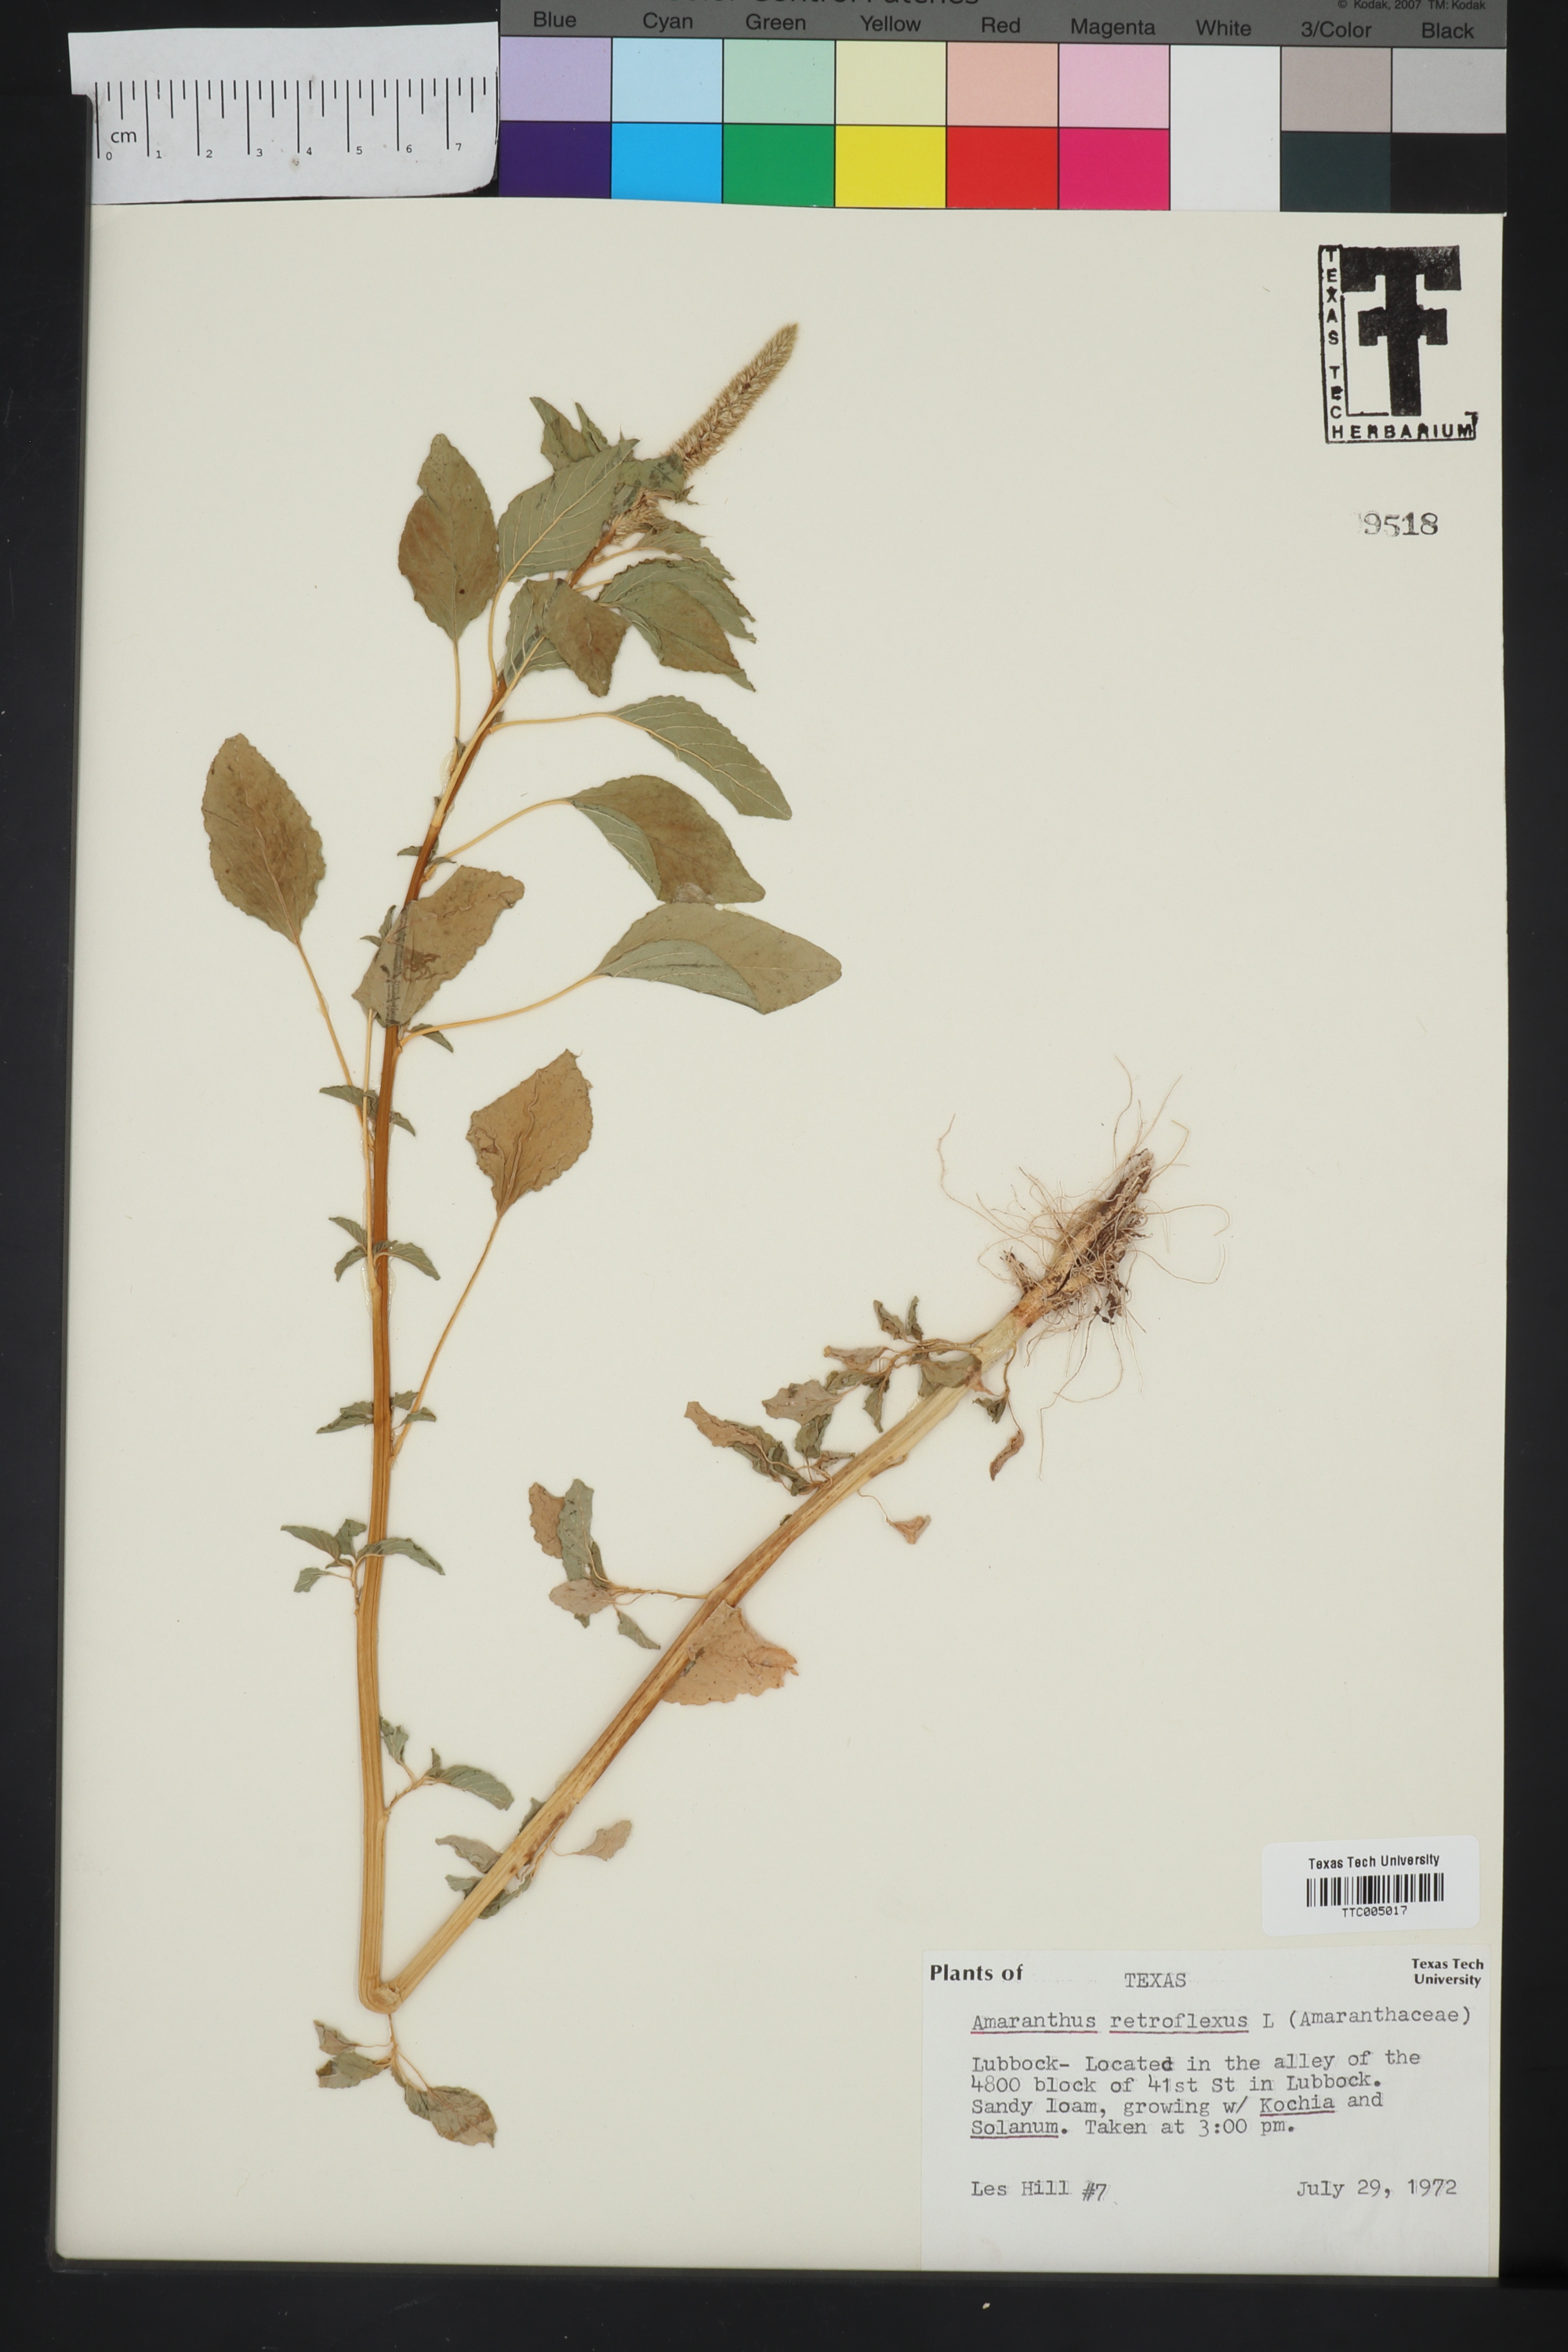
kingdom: Plantae
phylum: Tracheophyta
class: Magnoliopsida
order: Caryophyllales
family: Amaranthaceae
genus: Amaranthus
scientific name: Amaranthus retroflexus
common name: Redroot amaranth
